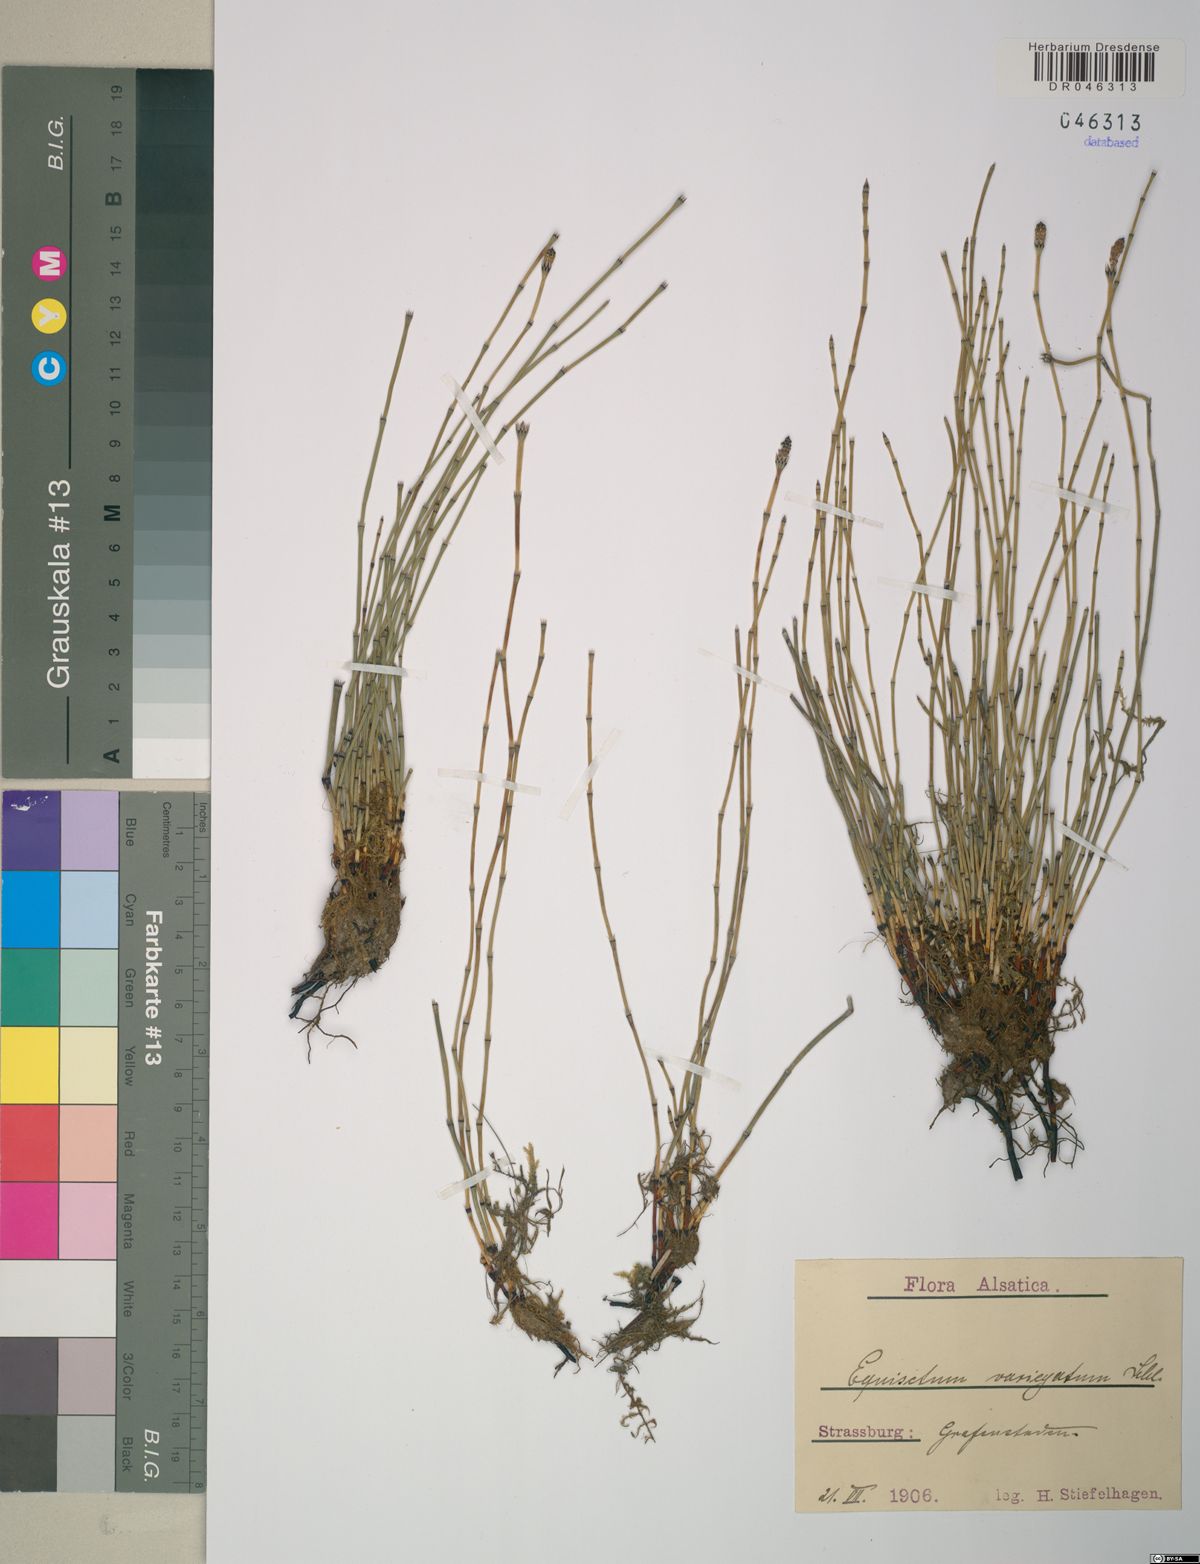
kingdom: Plantae
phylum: Tracheophyta
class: Polypodiopsida
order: Equisetales
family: Equisetaceae
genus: Equisetum
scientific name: Equisetum variegatum
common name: Variegated horsetail
